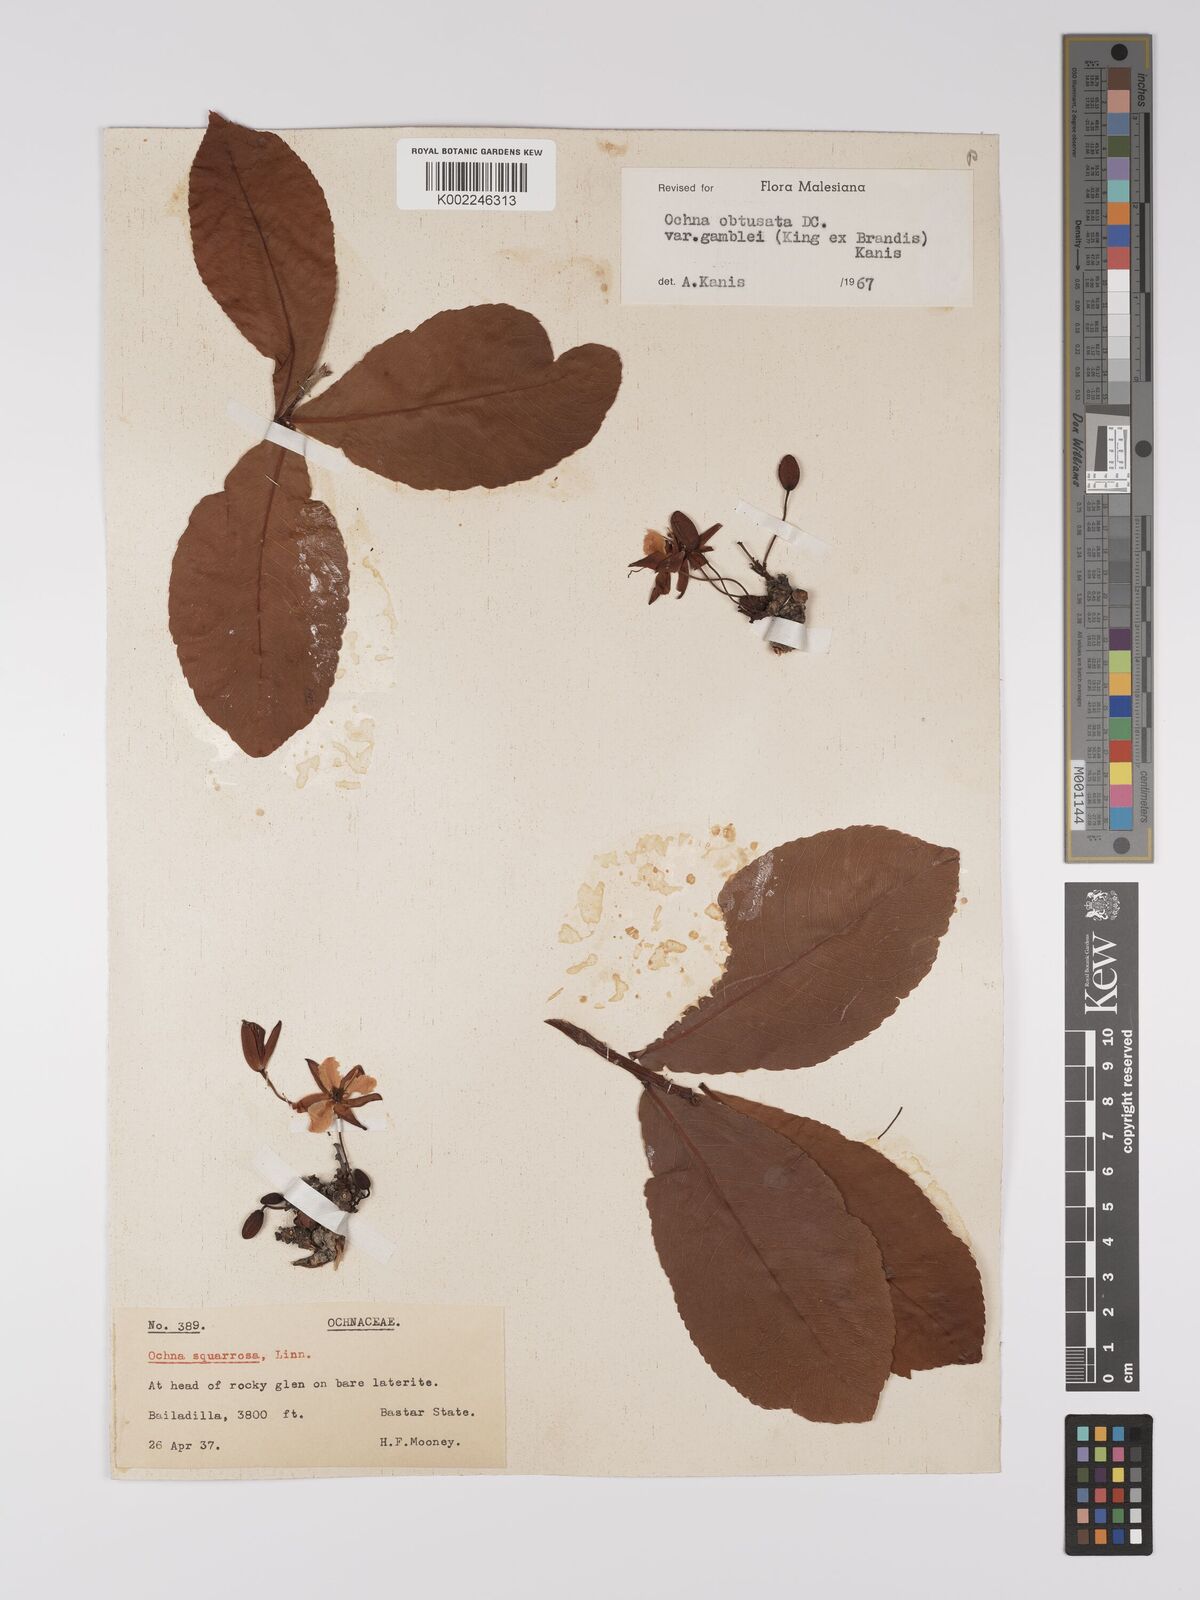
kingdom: Plantae
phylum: Tracheophyta
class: Magnoliopsida
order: Malpighiales
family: Ochnaceae
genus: Ochna
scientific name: Ochna obtusata
